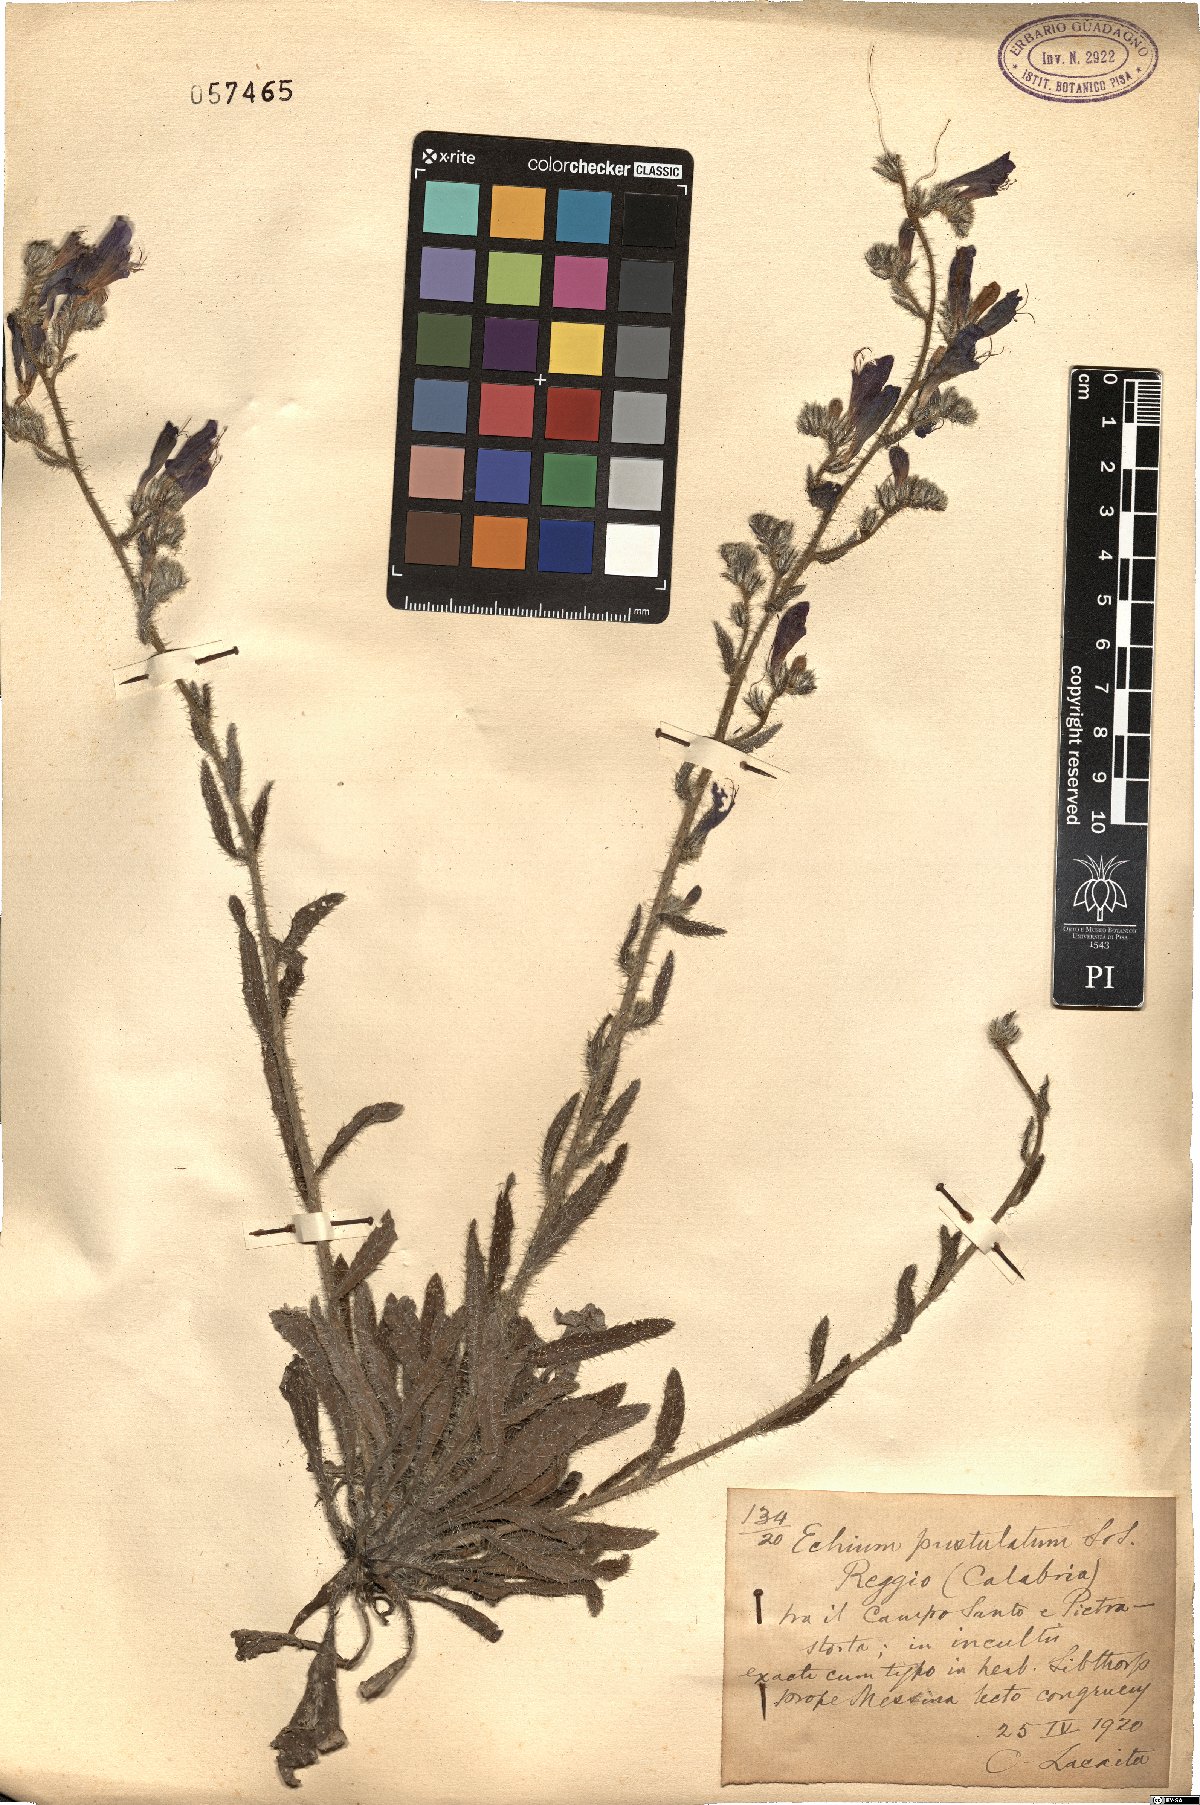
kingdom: Plantae
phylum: Tracheophyta
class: Magnoliopsida
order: Boraginales
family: Boraginaceae
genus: Echium
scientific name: Echium vulgare
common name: Common viper's bugloss
